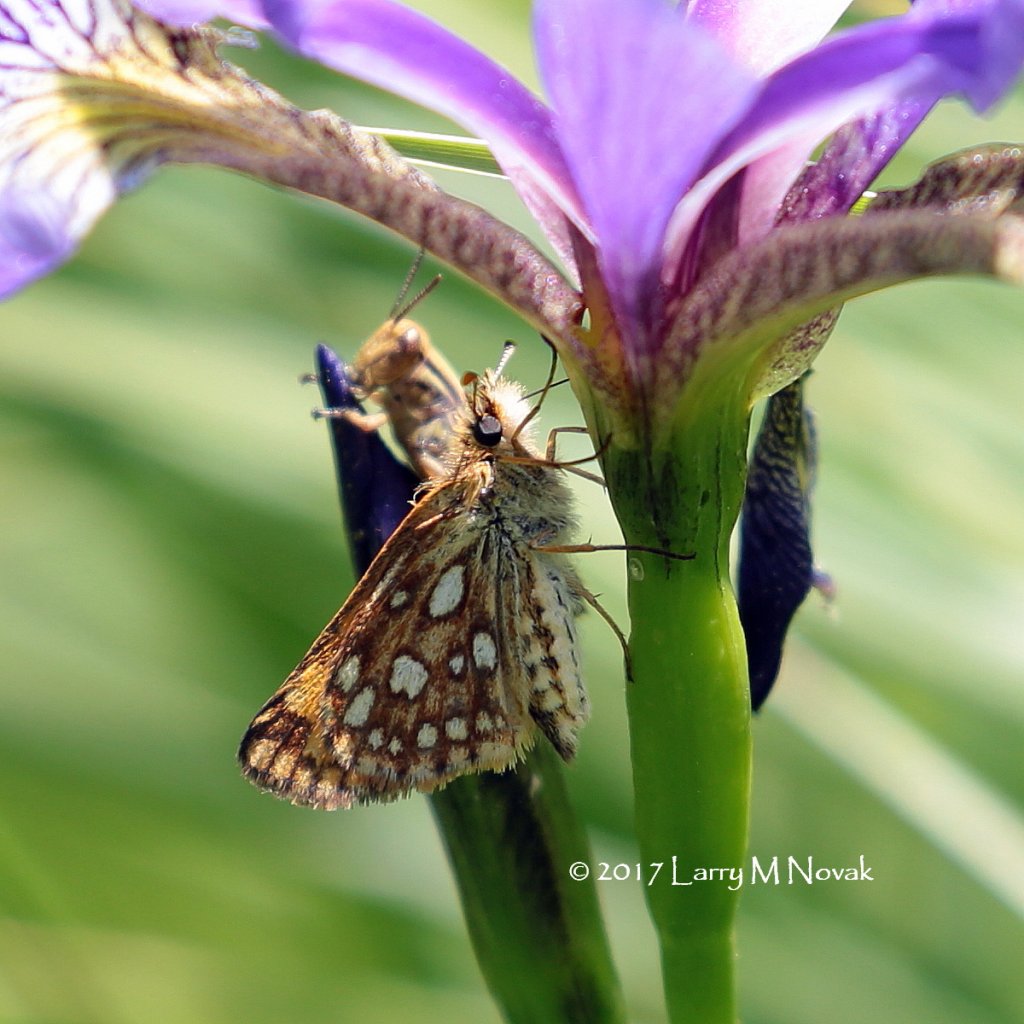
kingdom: Animalia
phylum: Arthropoda
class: Insecta
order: Lepidoptera
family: Hesperiidae
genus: Carterocephalus
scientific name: Carterocephalus palaemon
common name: Chequered Skipper
